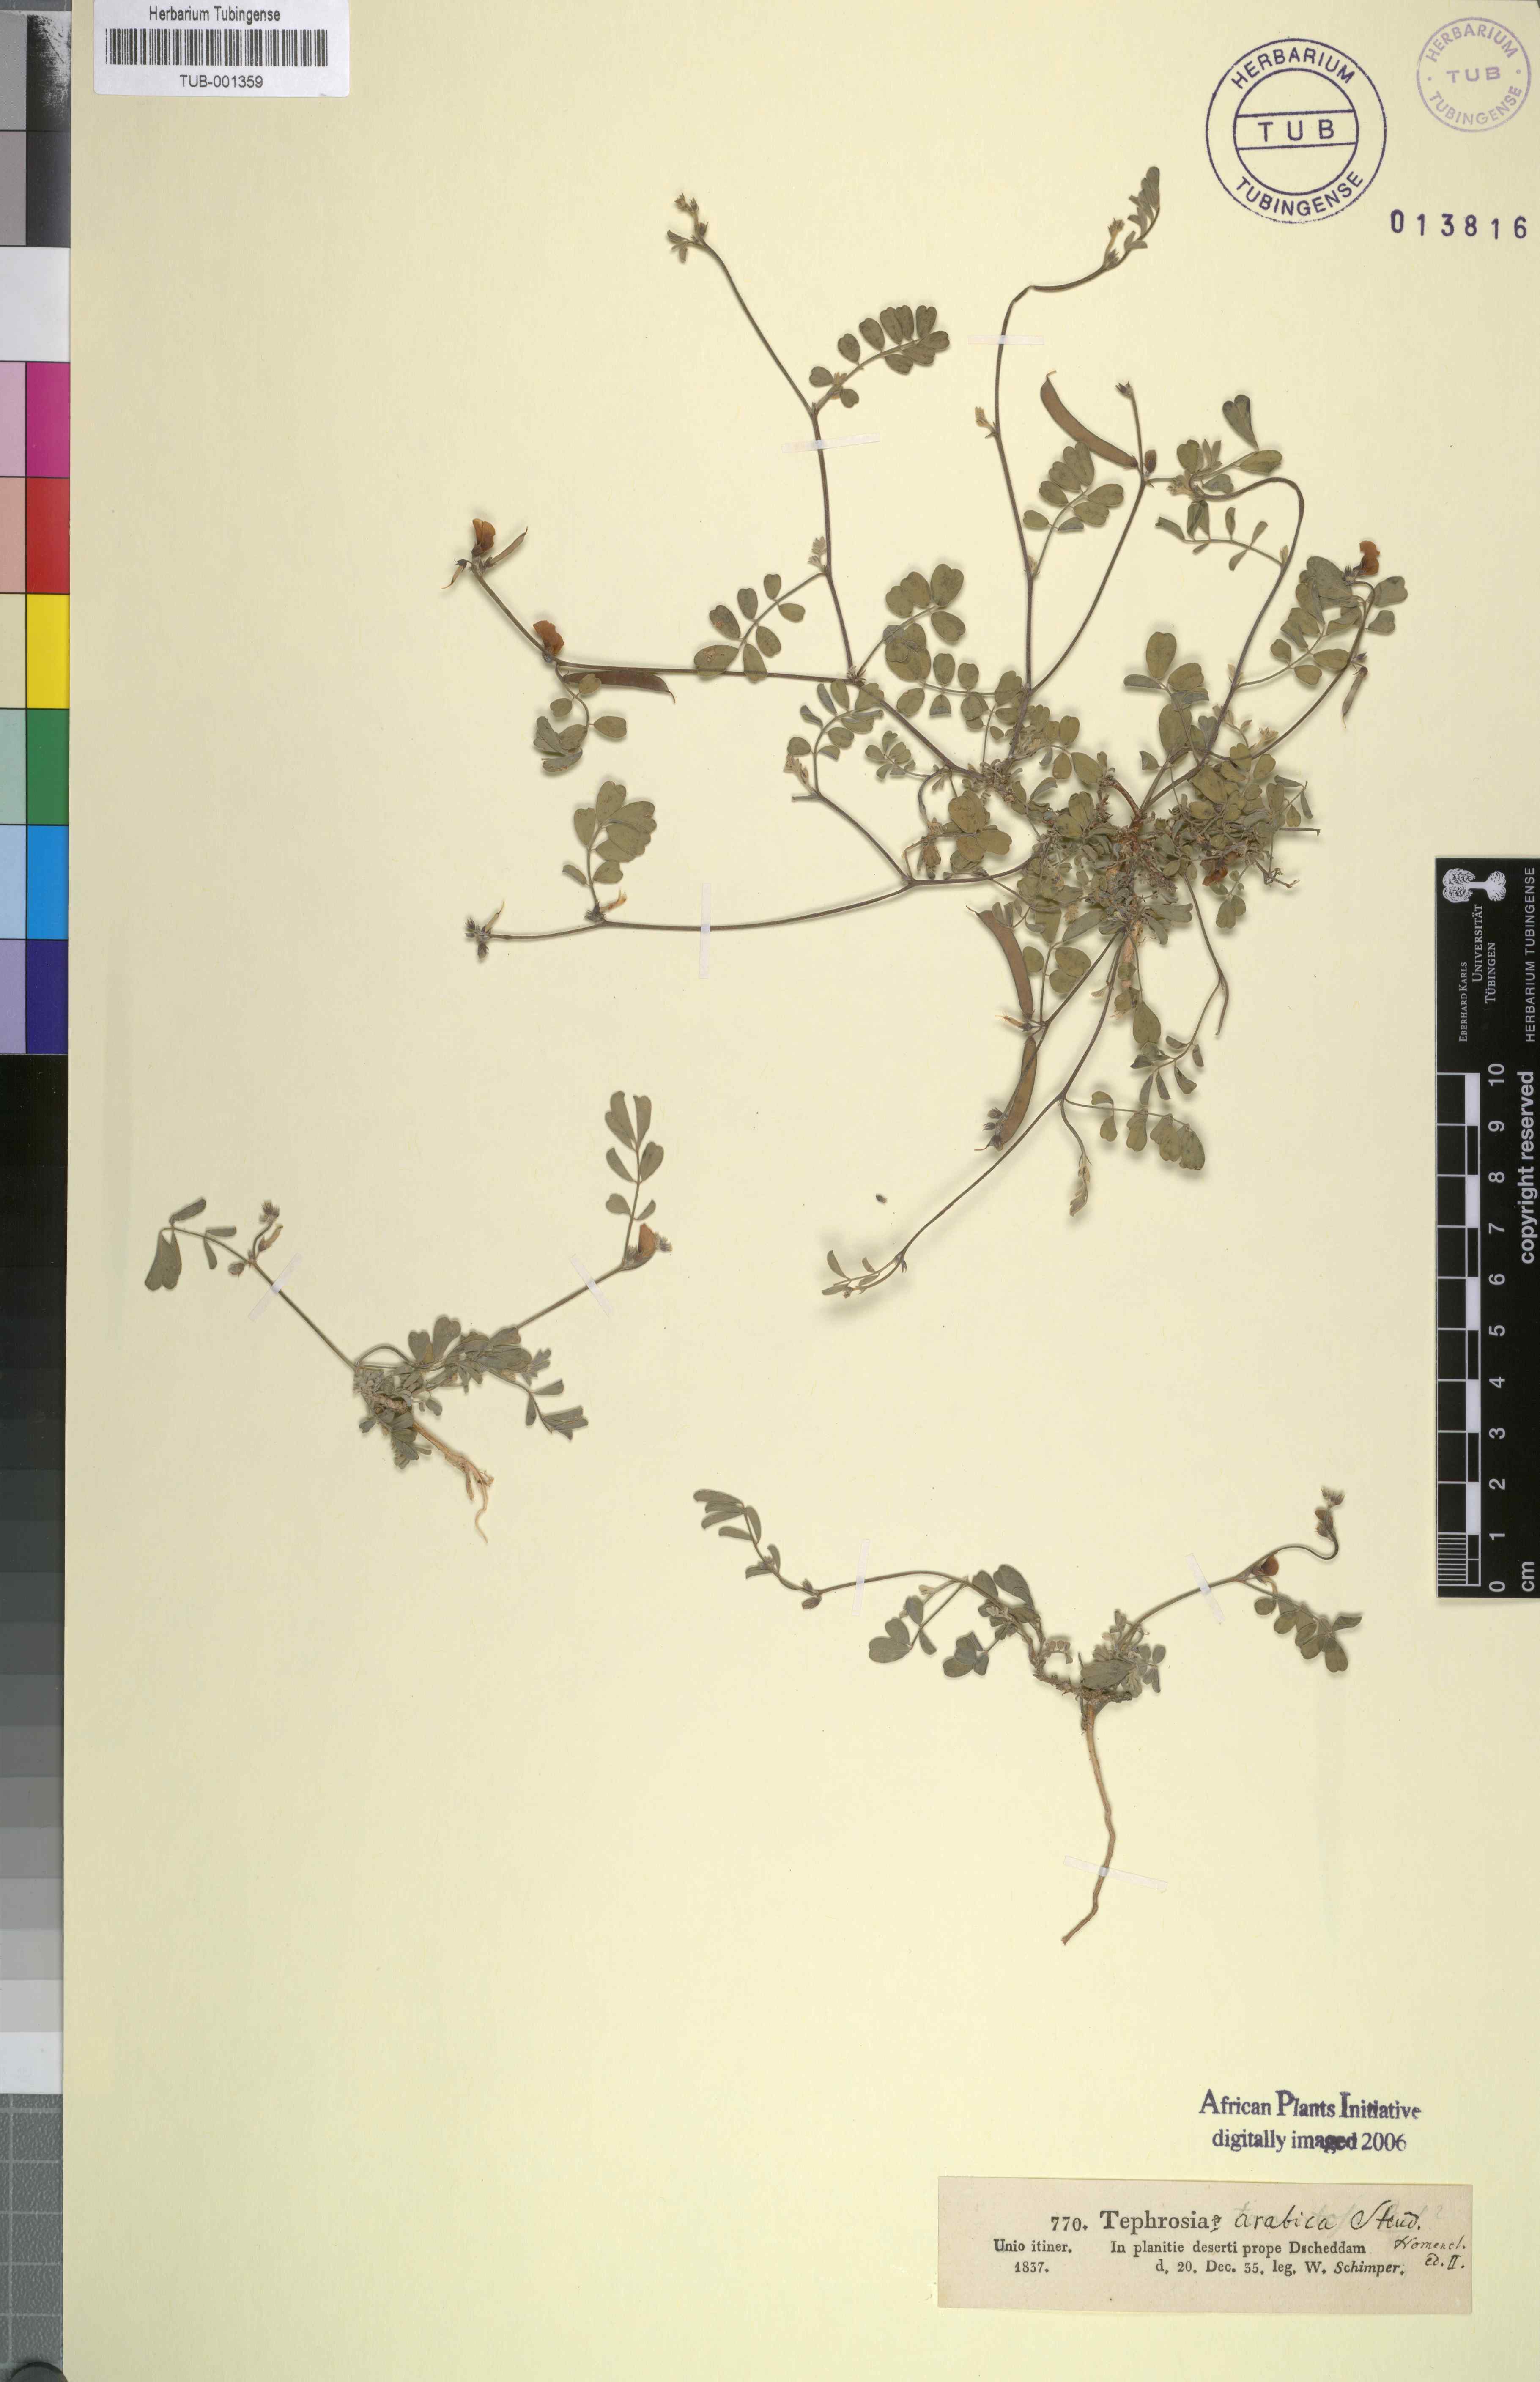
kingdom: Plantae
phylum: Tracheophyta
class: Magnoliopsida
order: Fabales
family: Fabaceae
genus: Tephrosia
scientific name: Tephrosia nubica
